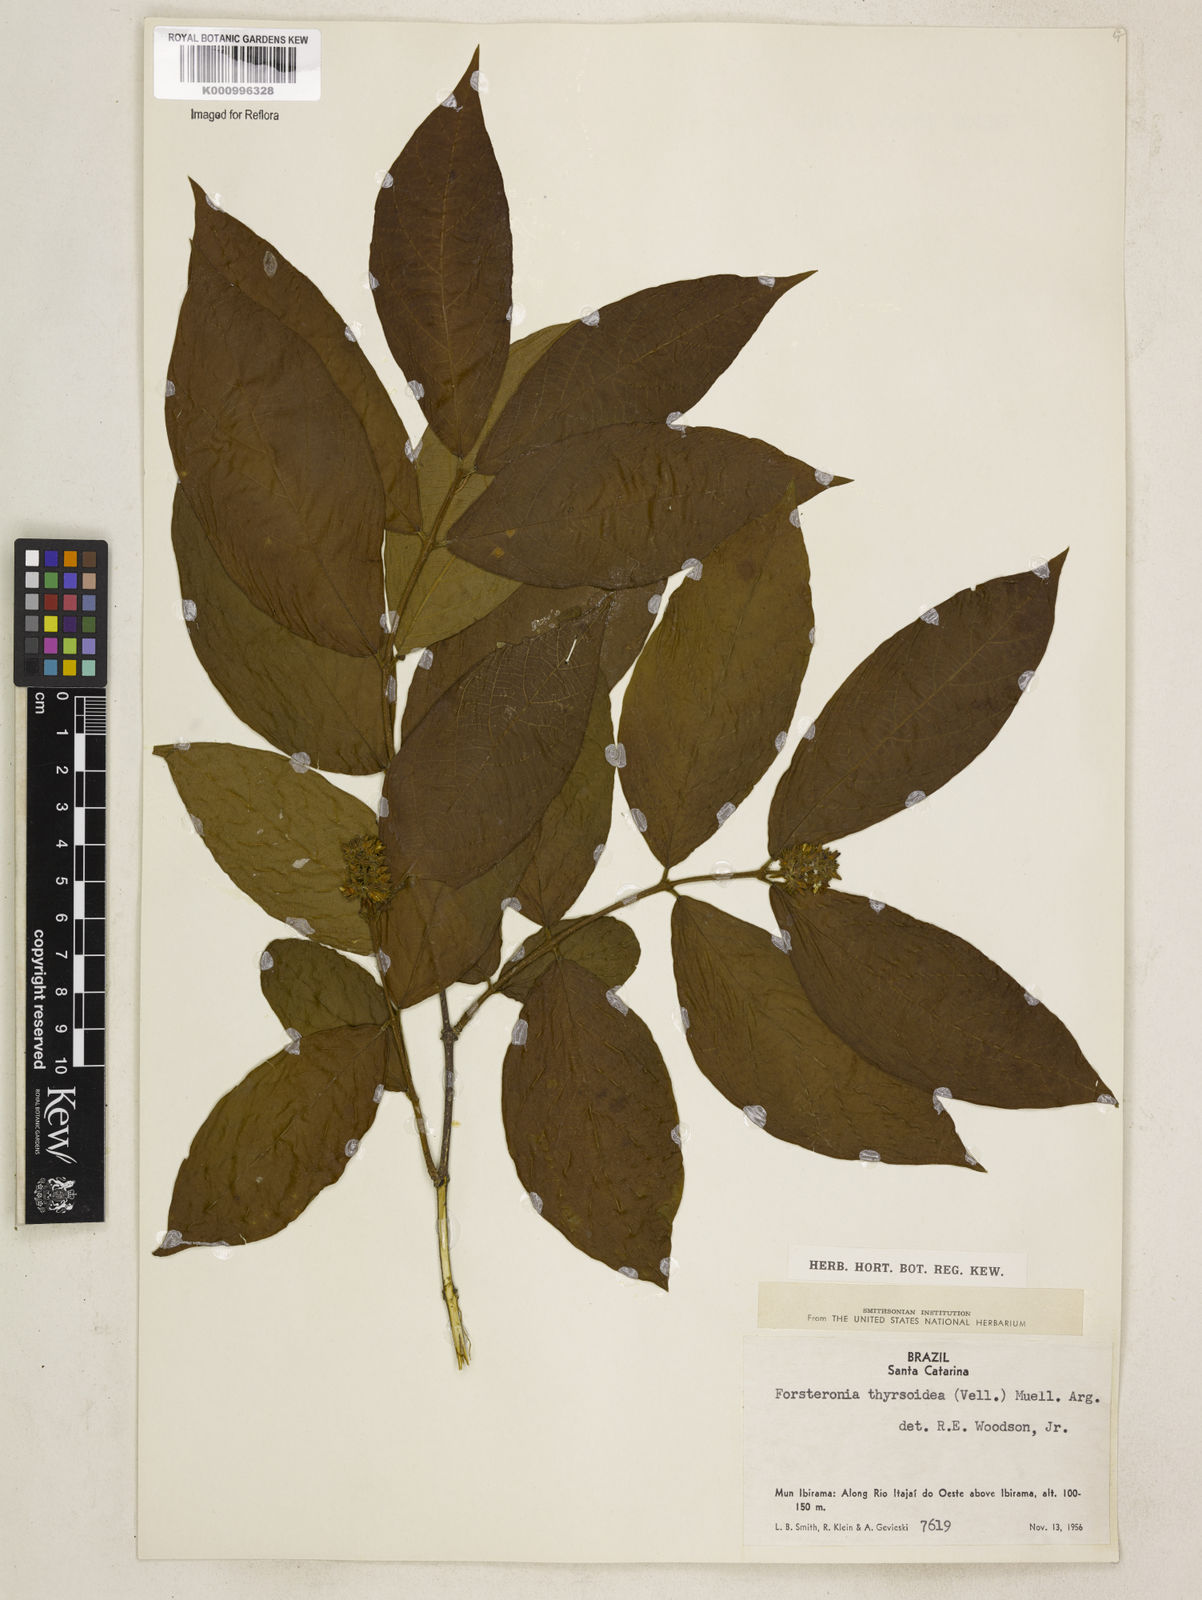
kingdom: Plantae
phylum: Tracheophyta
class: Magnoliopsida
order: Gentianales
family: Apocynaceae
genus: Forsteronia
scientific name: Forsteronia
